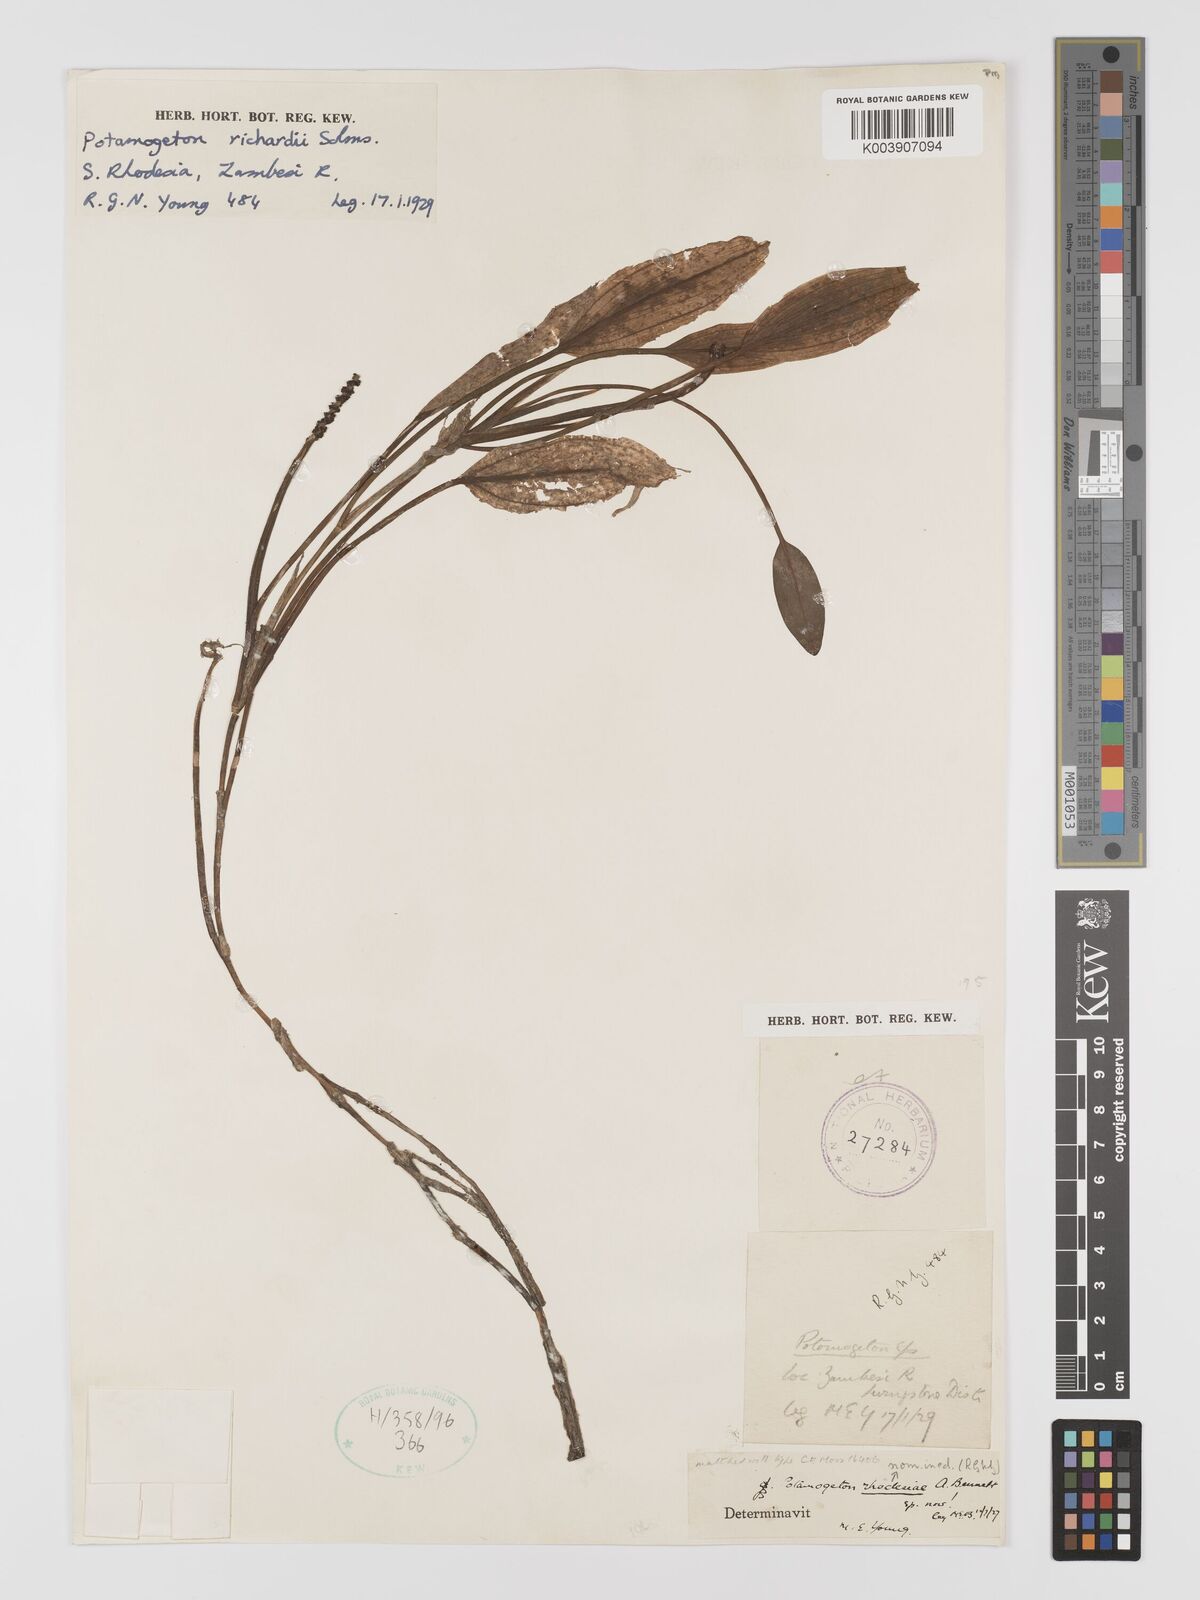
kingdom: Plantae
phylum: Tracheophyta
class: Liliopsida
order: Alismatales
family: Potamogetonaceae
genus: Potamogeton
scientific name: Potamogeton nodosus
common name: Loddon pondweed
